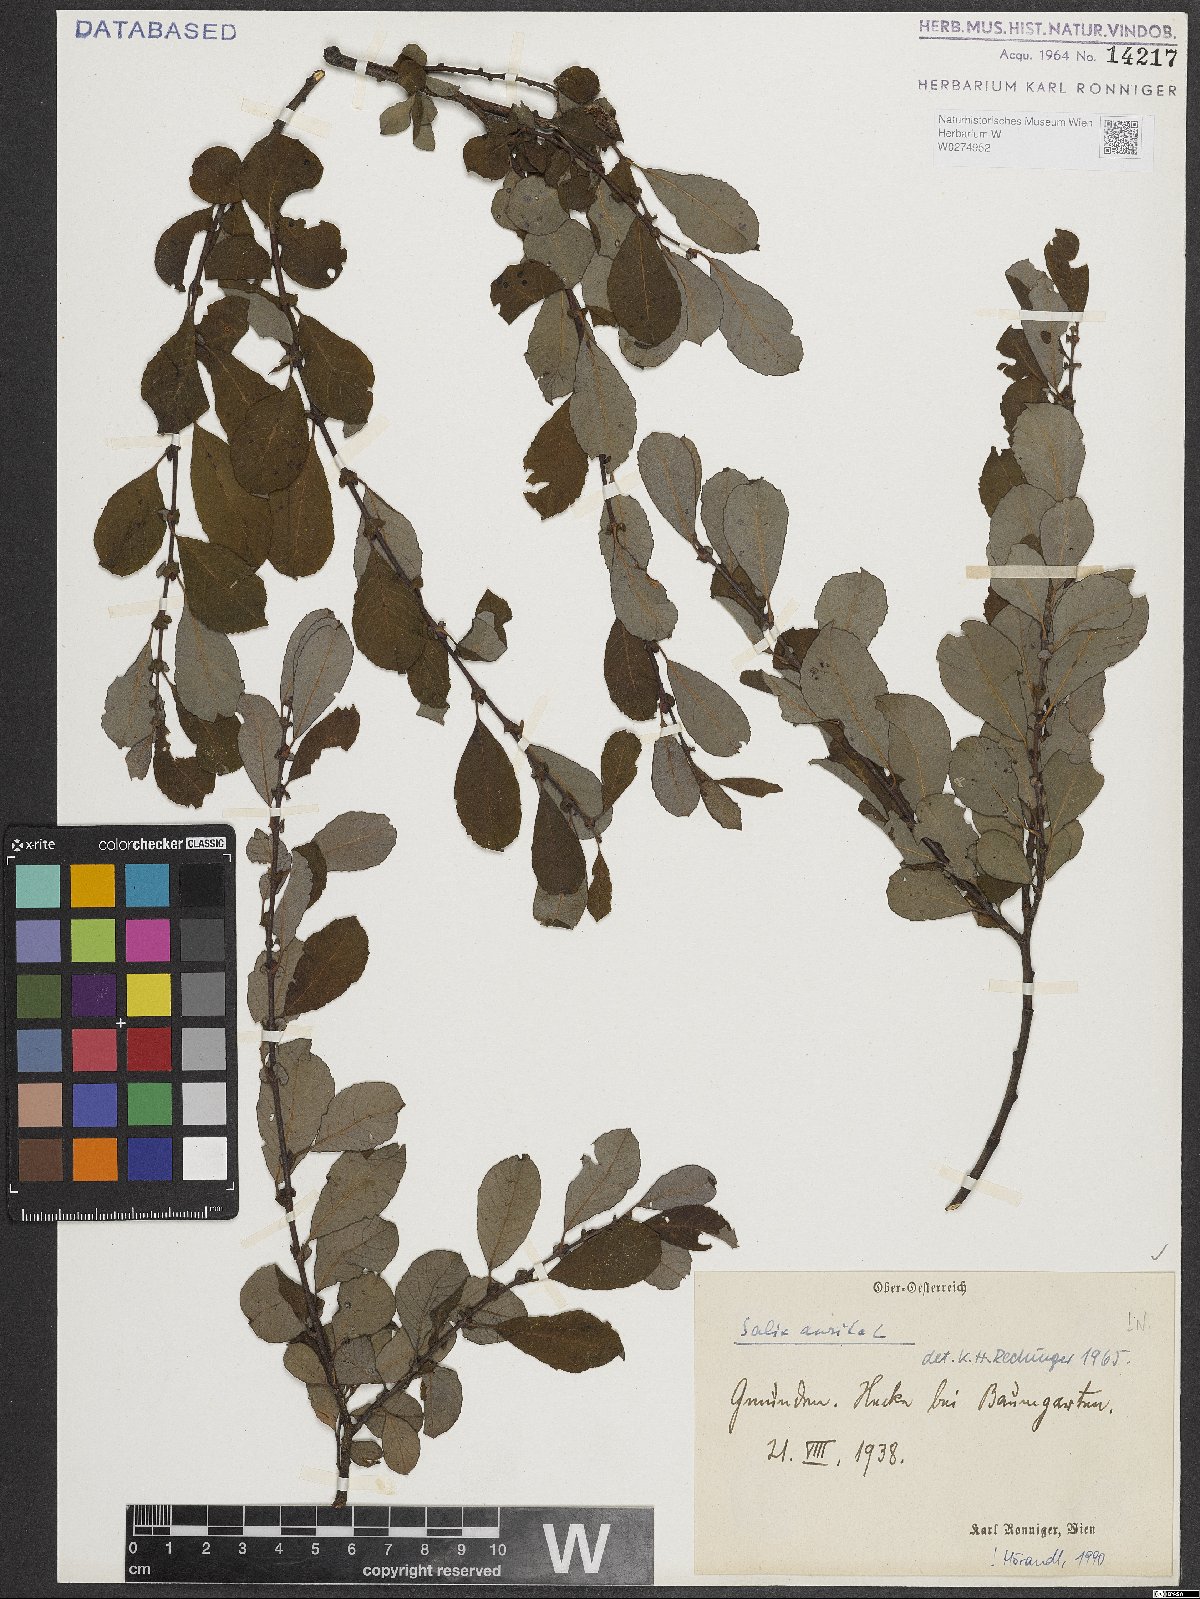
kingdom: Plantae
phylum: Tracheophyta
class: Magnoliopsida
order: Malpighiales
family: Salicaceae
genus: Salix
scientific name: Salix aurita
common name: Eared willow
